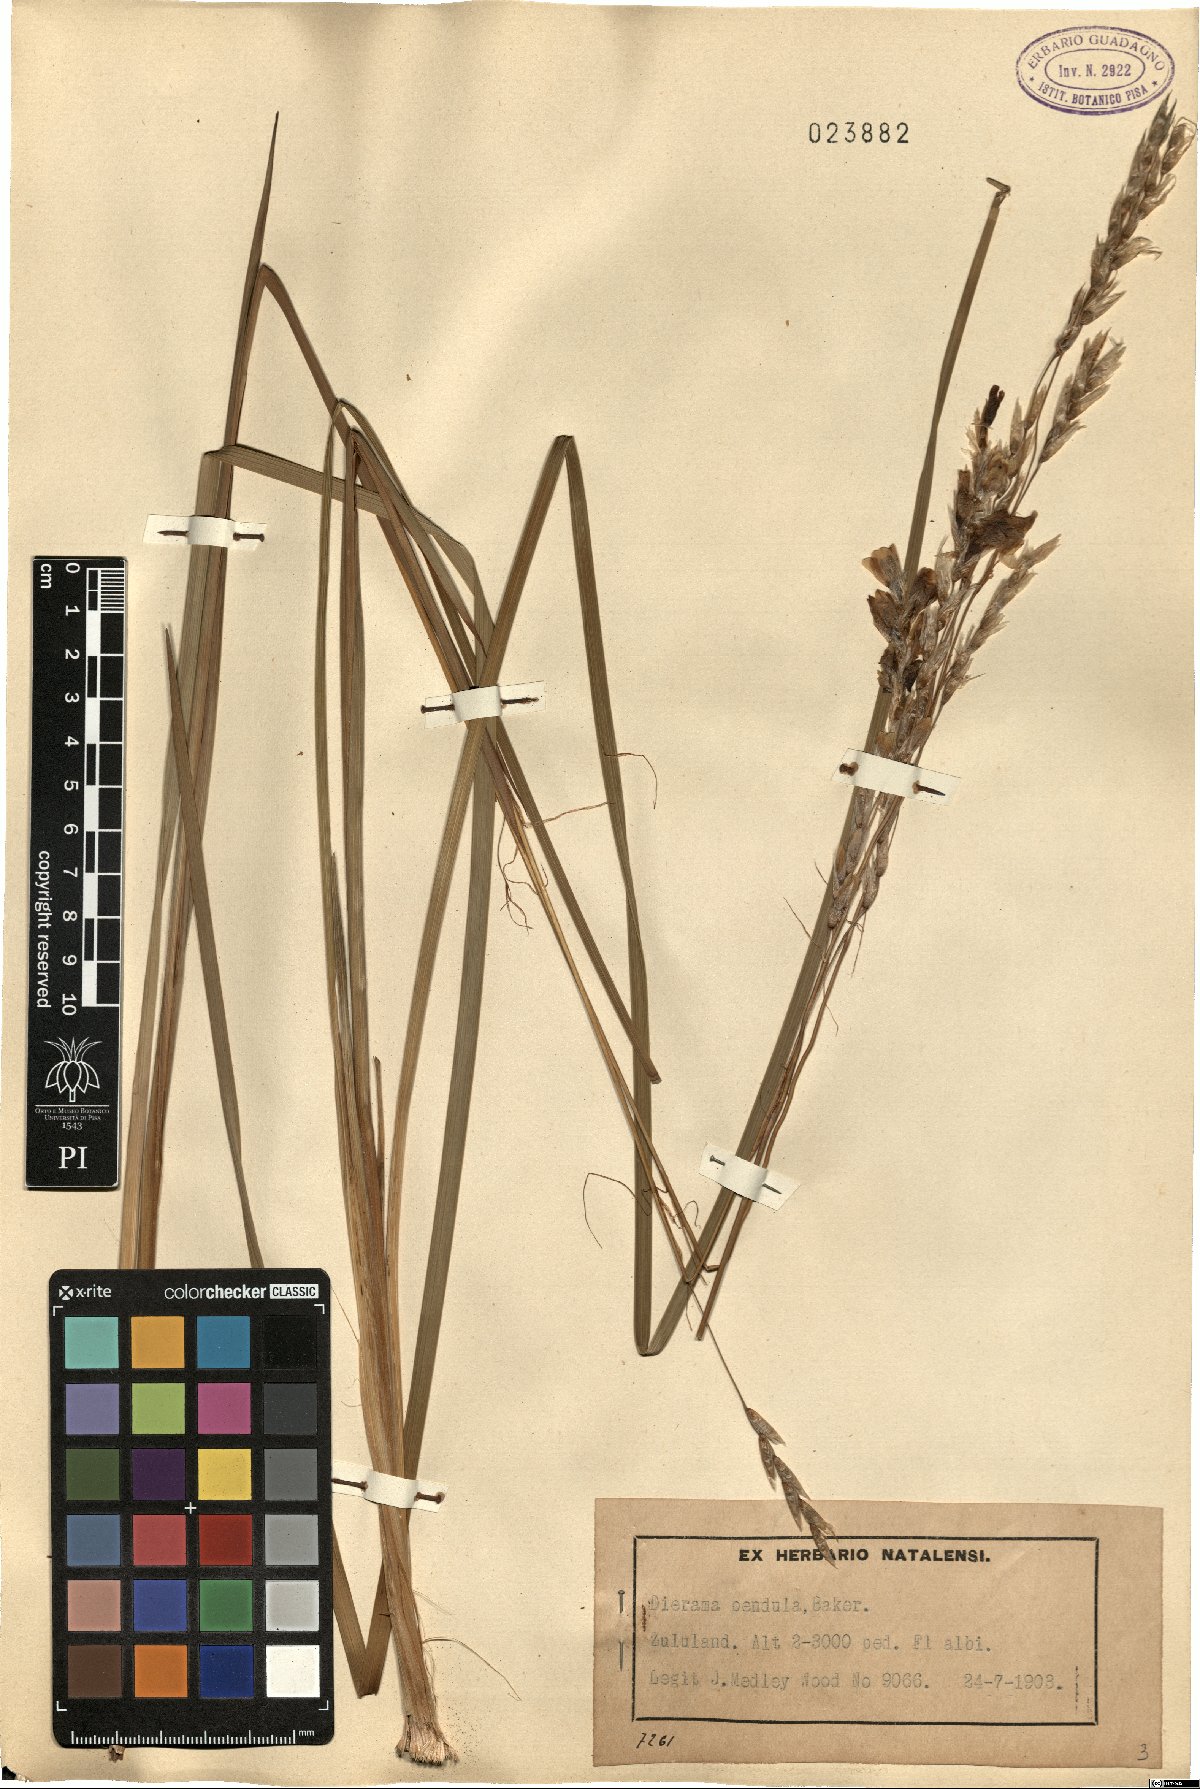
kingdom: Plantae
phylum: Tracheophyta
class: Liliopsida
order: Asparagales
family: Iridaceae
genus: Dierama
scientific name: Dierama pendulum
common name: Grassy-bell
